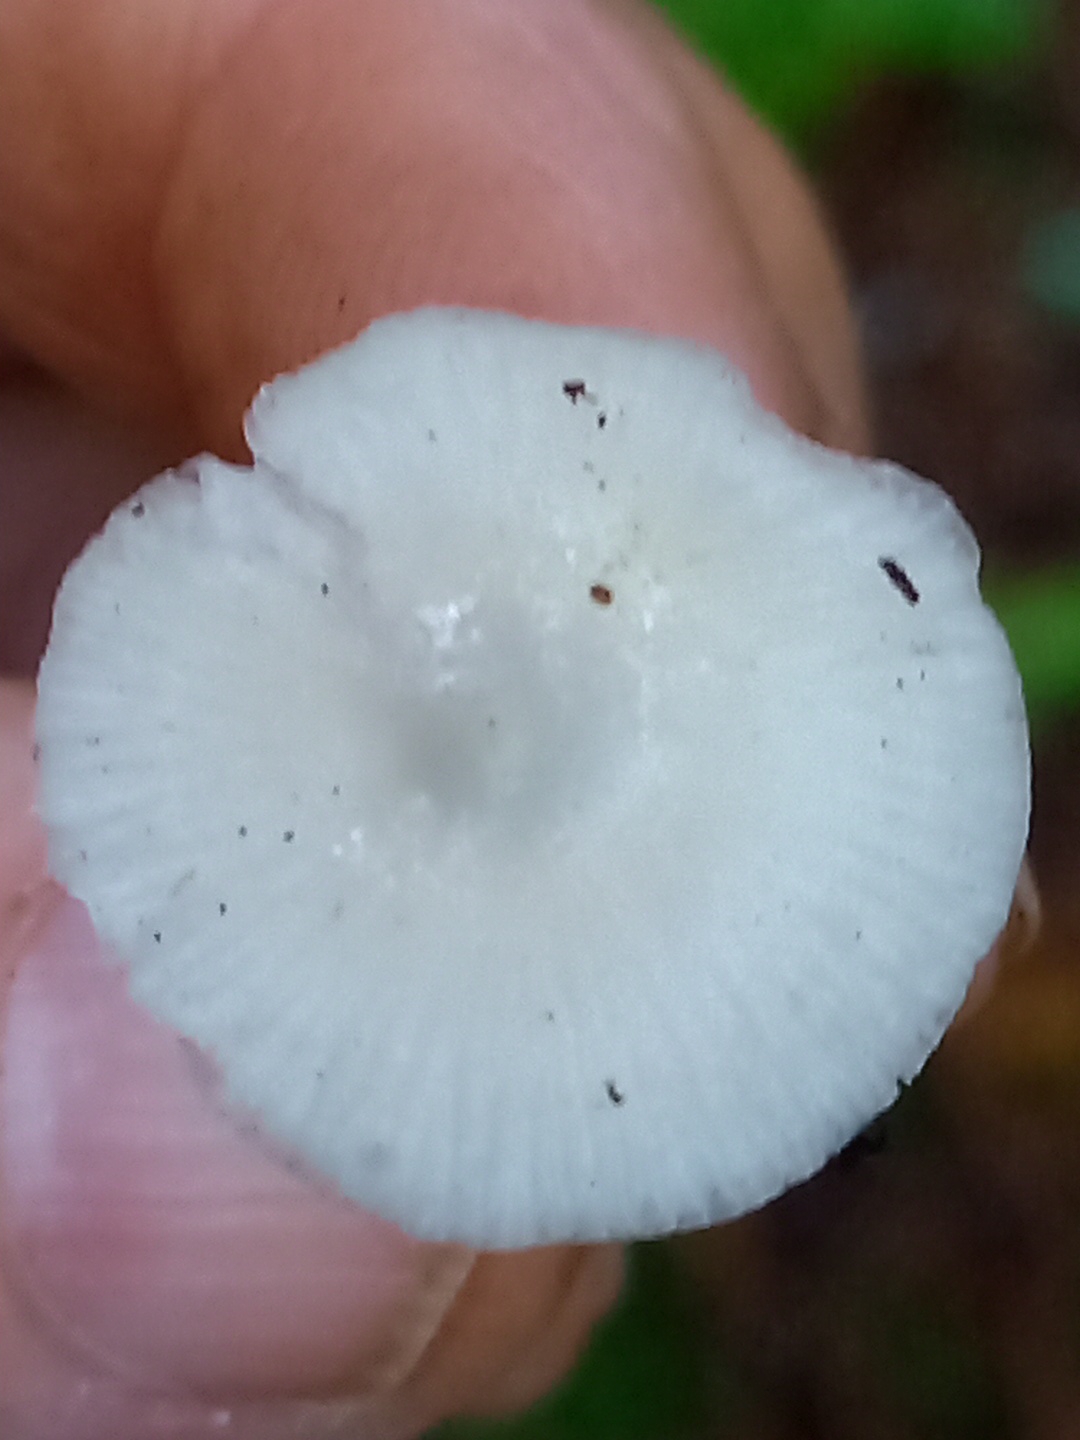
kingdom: Fungi
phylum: Basidiomycota
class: Agaricomycetes
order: Agaricales
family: Mycenaceae
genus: Hemimycena
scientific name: Hemimycena
